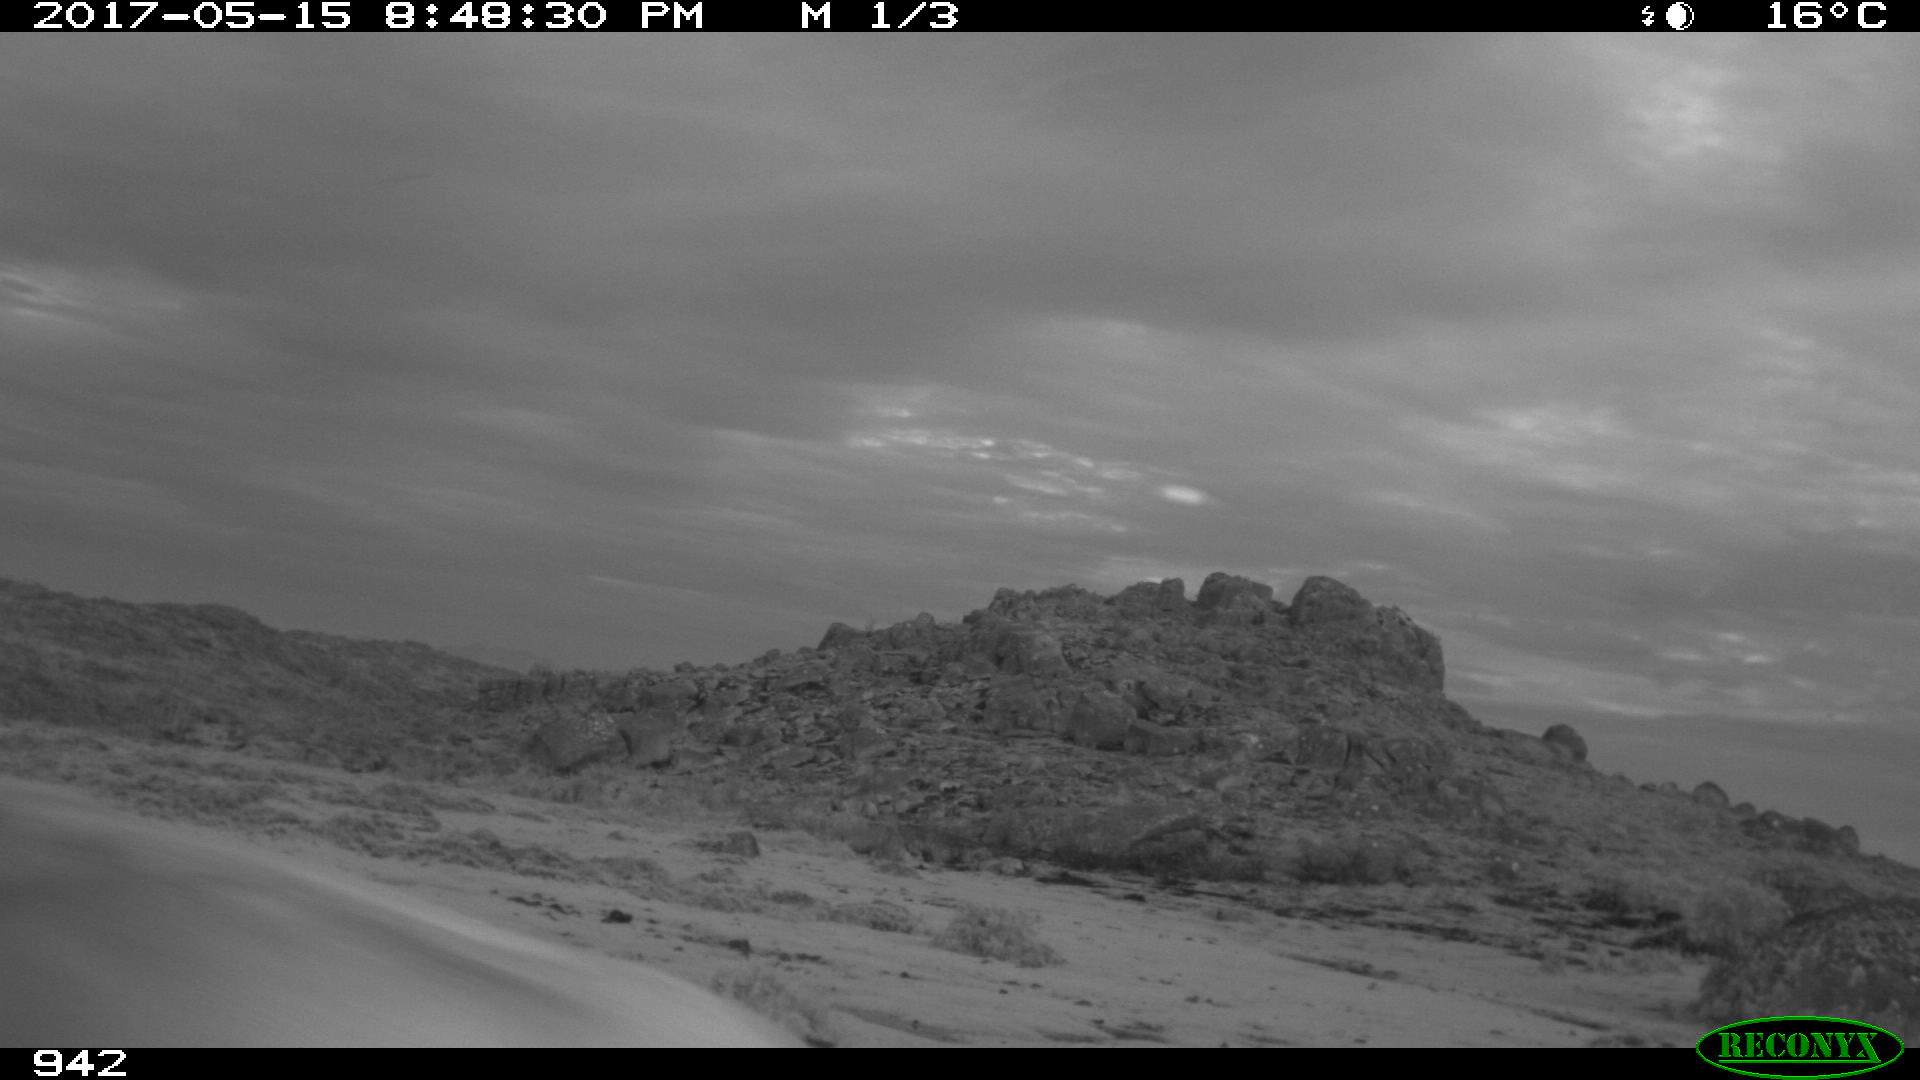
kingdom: Animalia
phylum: Chordata
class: Mammalia
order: Artiodactyla
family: Bovidae
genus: Bos
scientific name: Bos taurus
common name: Domesticated cattle
